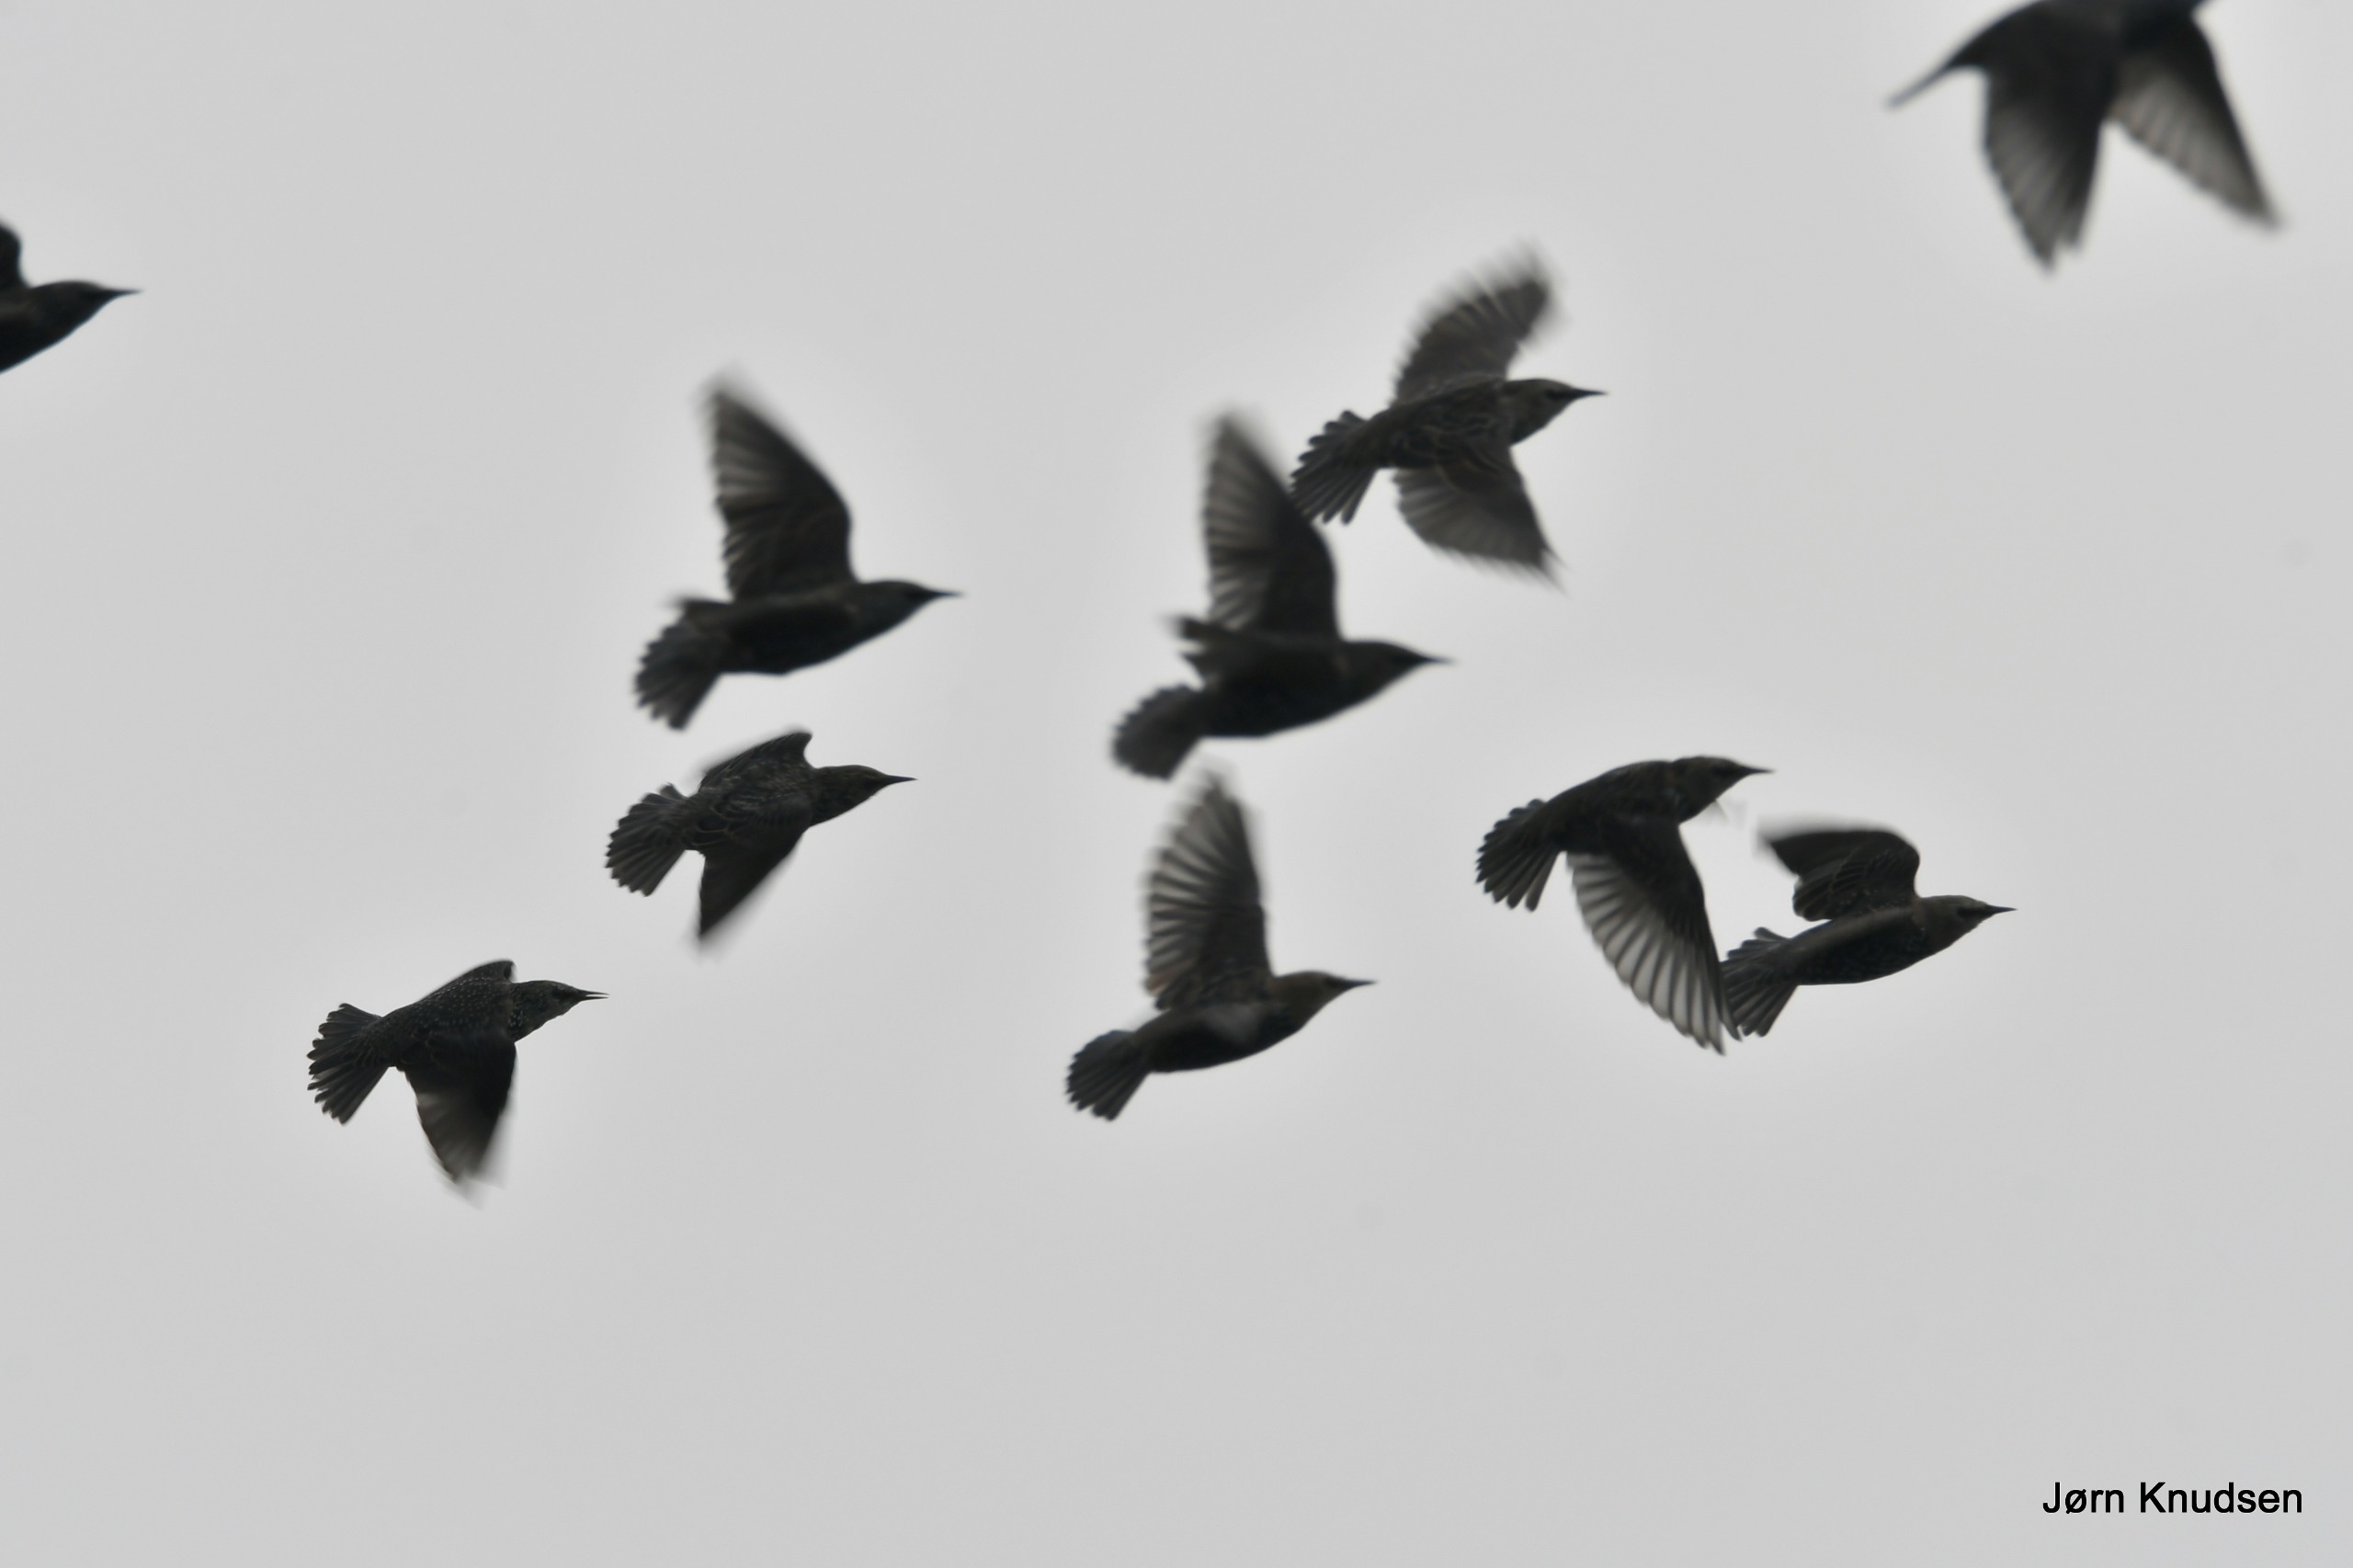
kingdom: Animalia
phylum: Chordata
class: Aves
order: Passeriformes
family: Sturnidae
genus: Sturnus
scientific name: Sturnus vulgaris
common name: Stær
